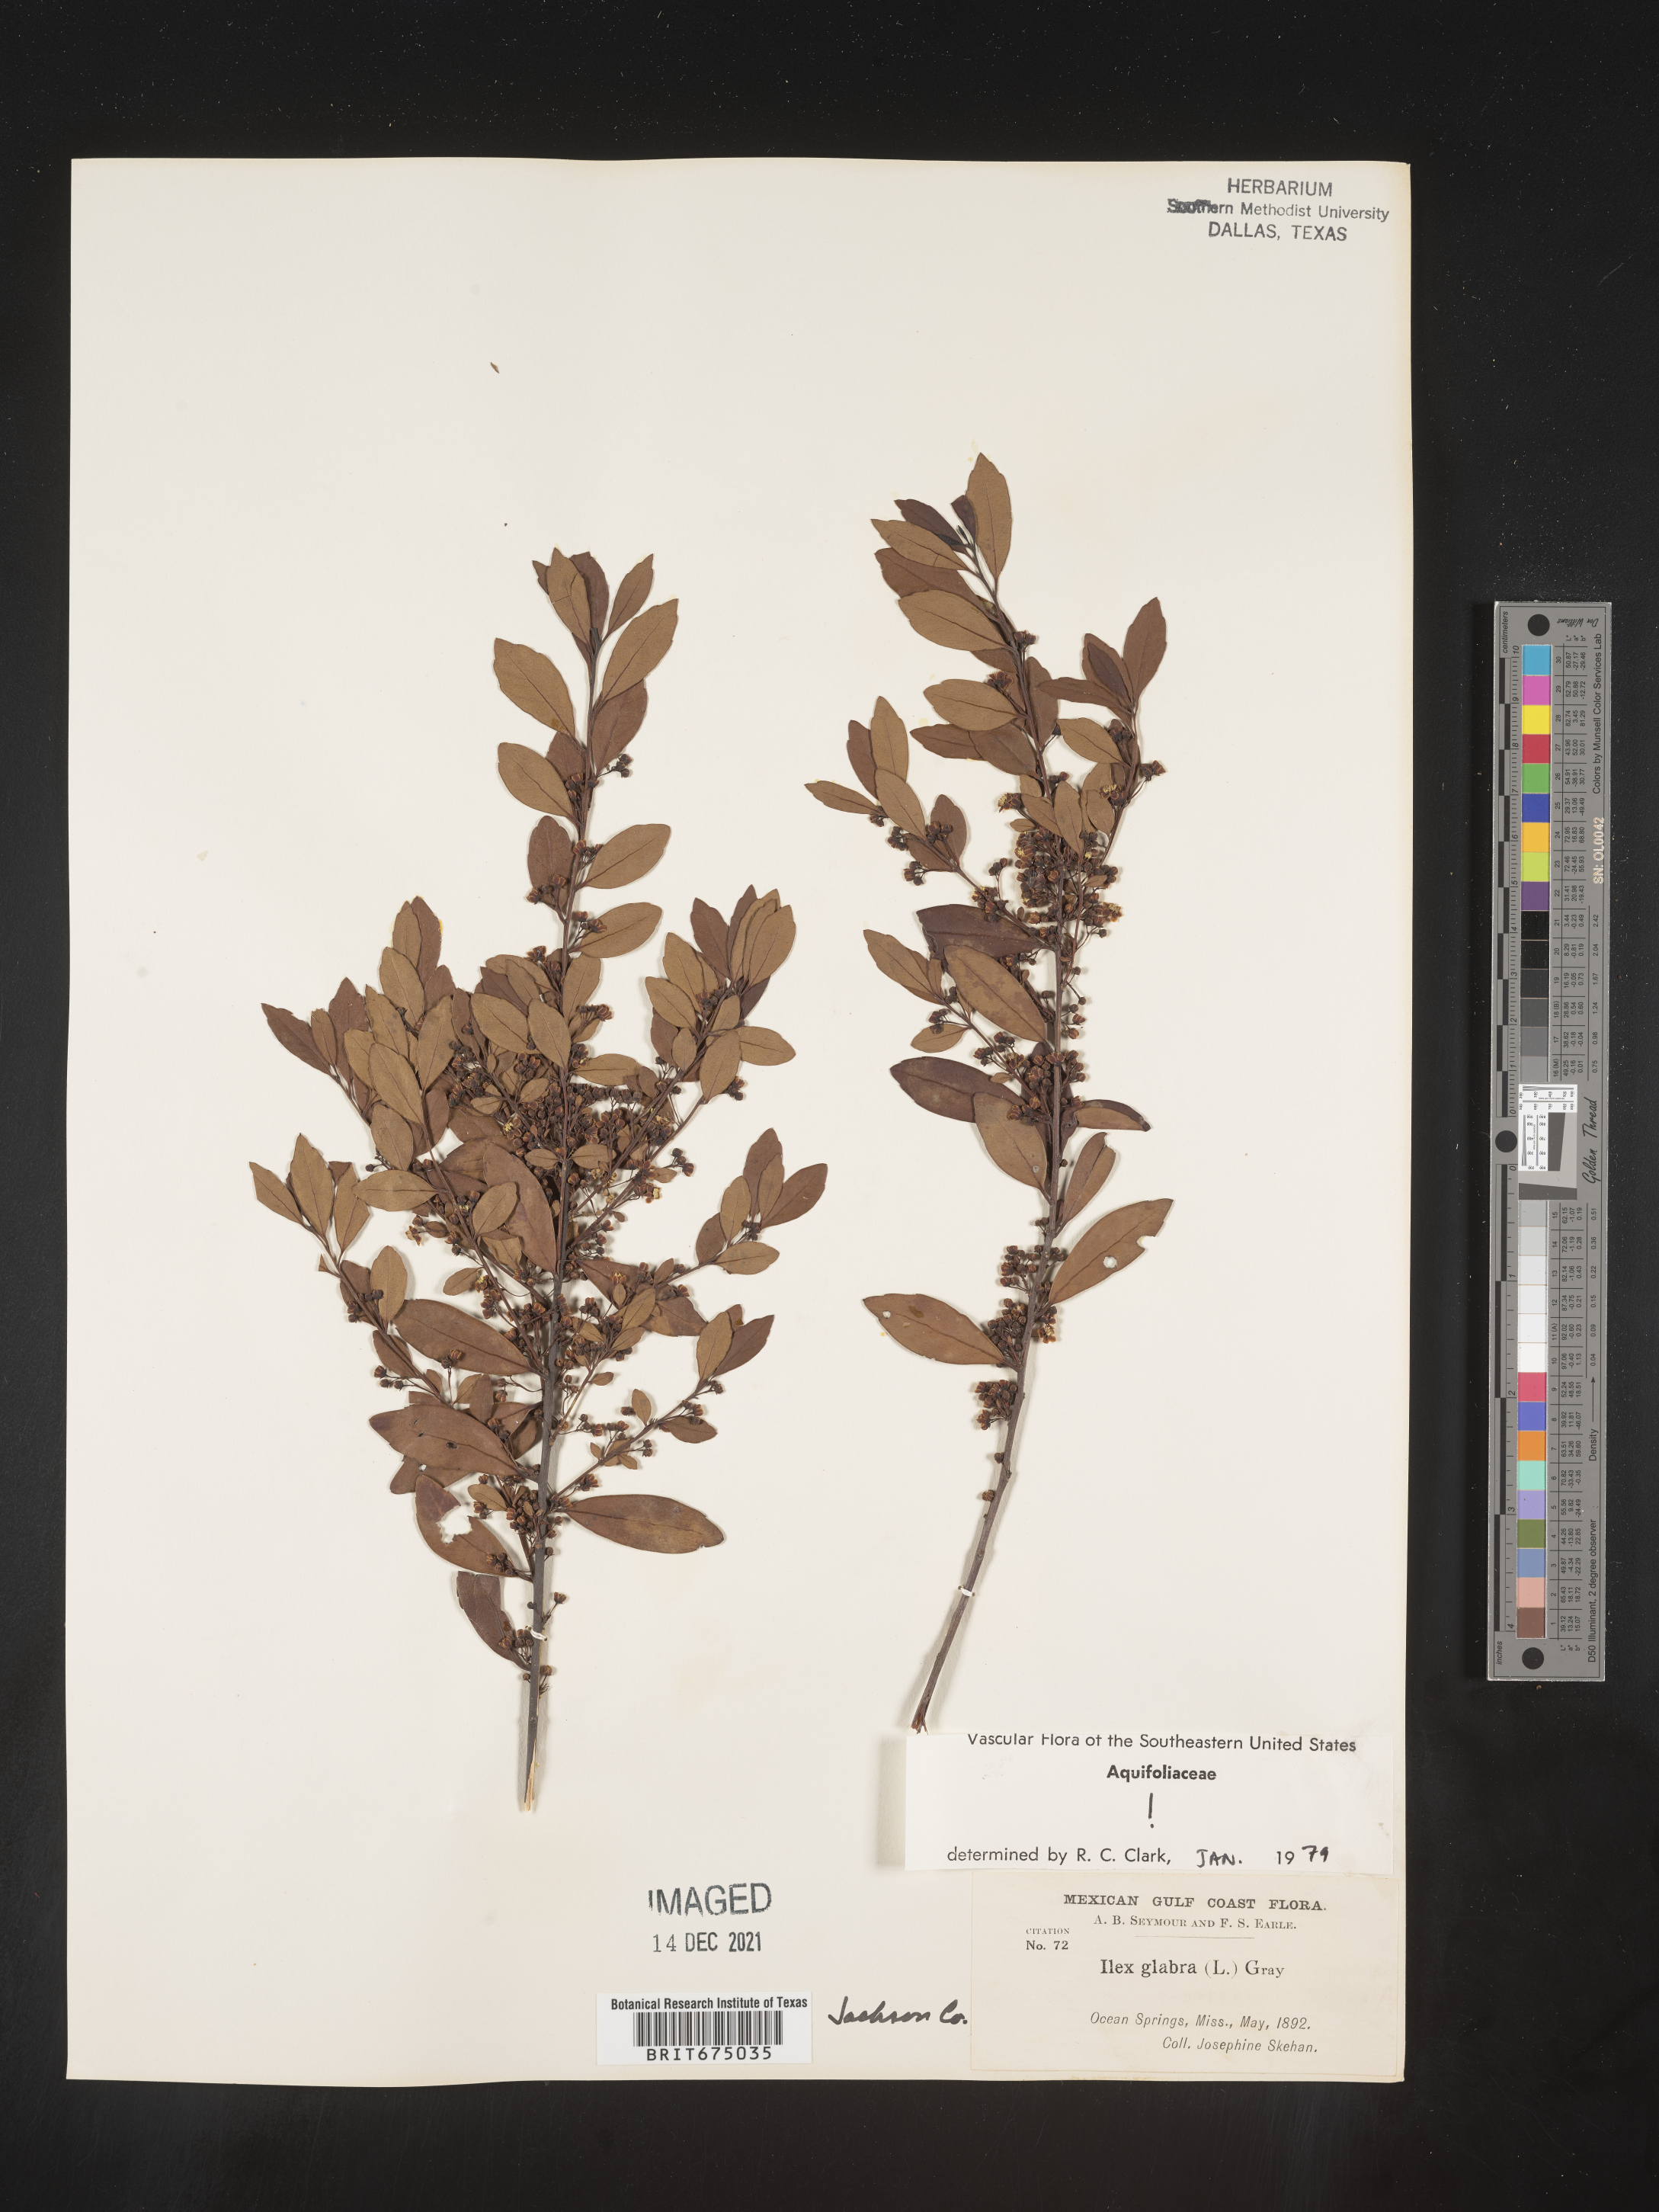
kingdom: Plantae
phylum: Tracheophyta
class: Magnoliopsida
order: Aquifoliales
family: Aquifoliaceae
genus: Ilex
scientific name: Ilex glabra
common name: Bitter gallberry
